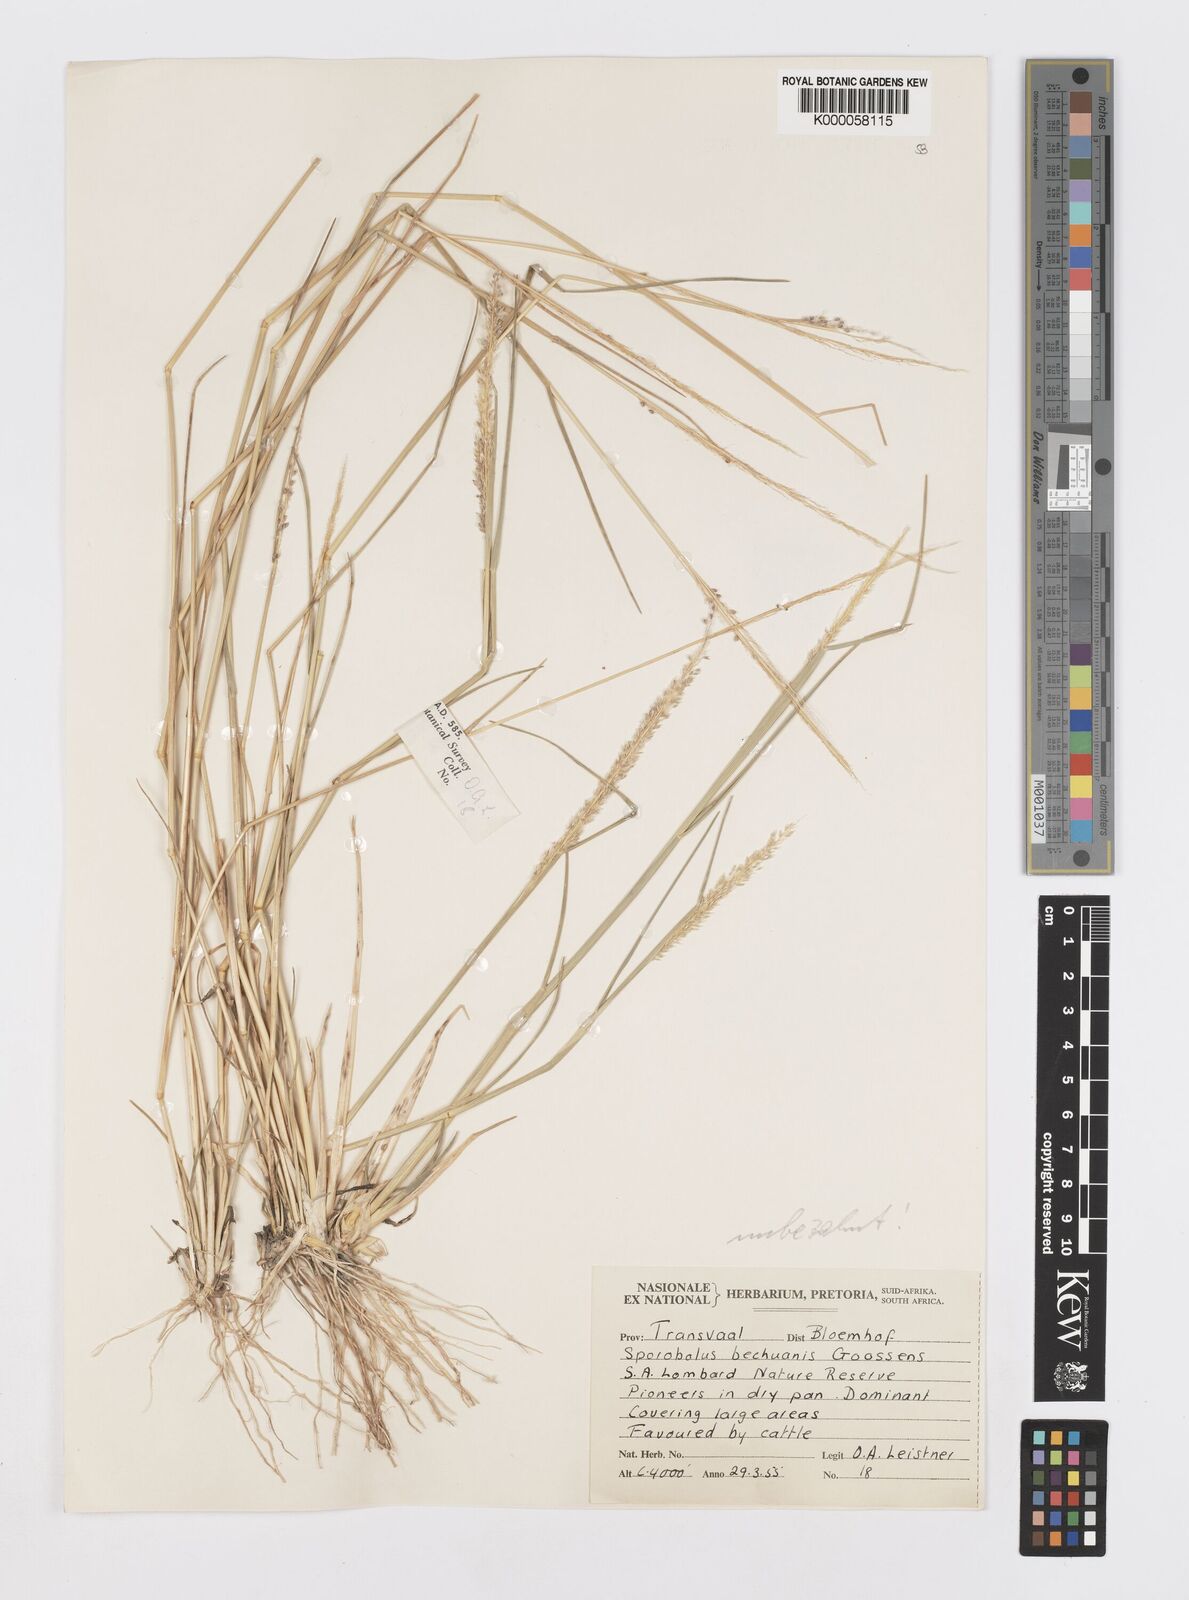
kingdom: Plantae
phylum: Tracheophyta
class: Liliopsida
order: Poales
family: Poaceae
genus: Sporobolus
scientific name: Sporobolus bechuanicus
